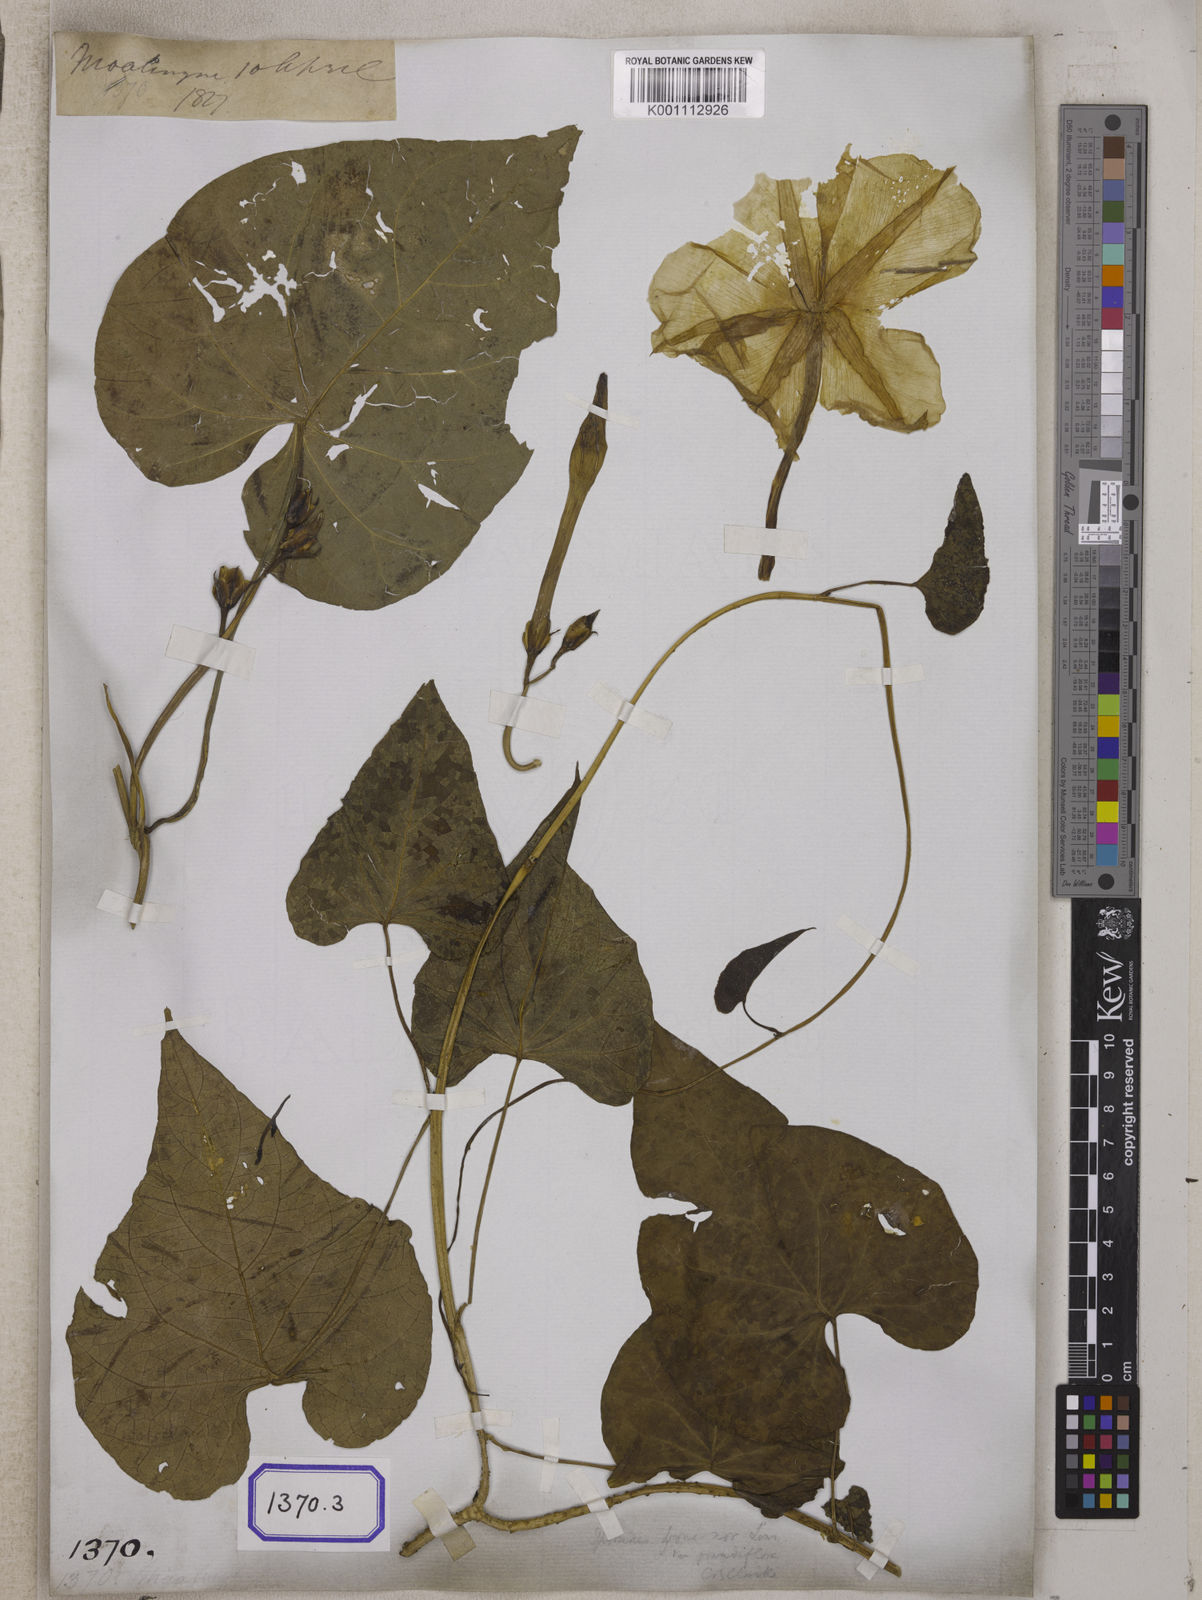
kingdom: Plantae
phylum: Tracheophyta
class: Magnoliopsida
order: Solanales
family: Convolvulaceae
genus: Convolvulus
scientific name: Convolvulus
